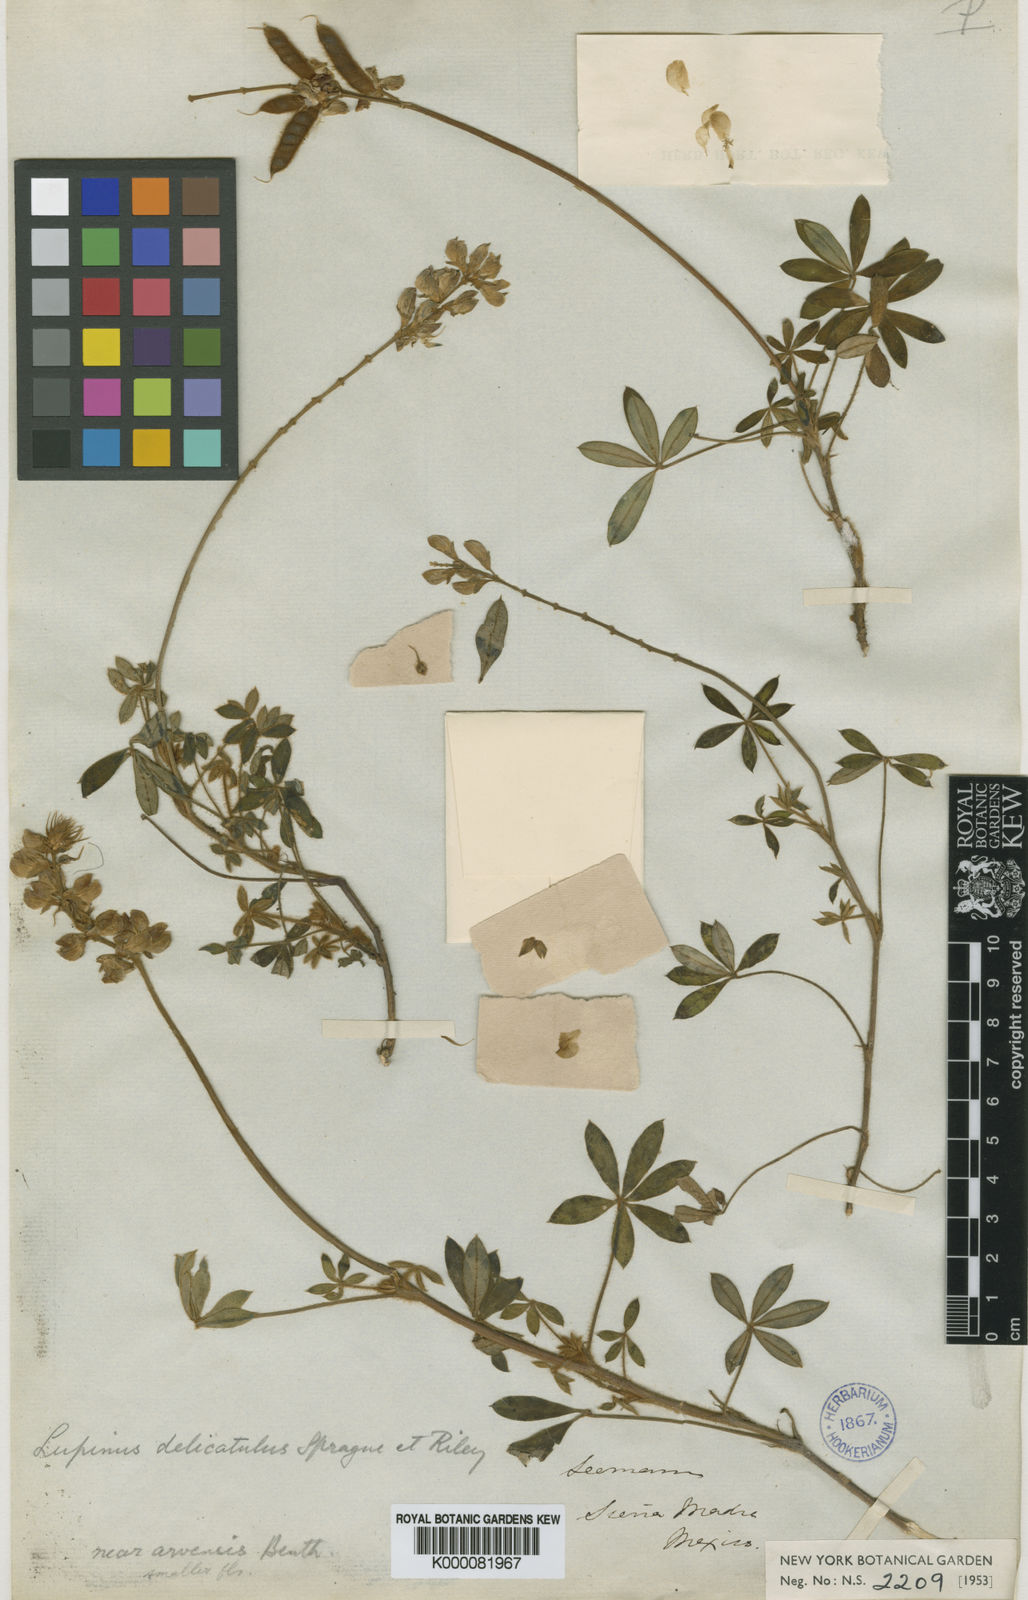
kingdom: Plantae
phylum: Tracheophyta
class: Magnoliopsida
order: Fabales
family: Fabaceae
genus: Lupinus
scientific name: Lupinus delicatulus
